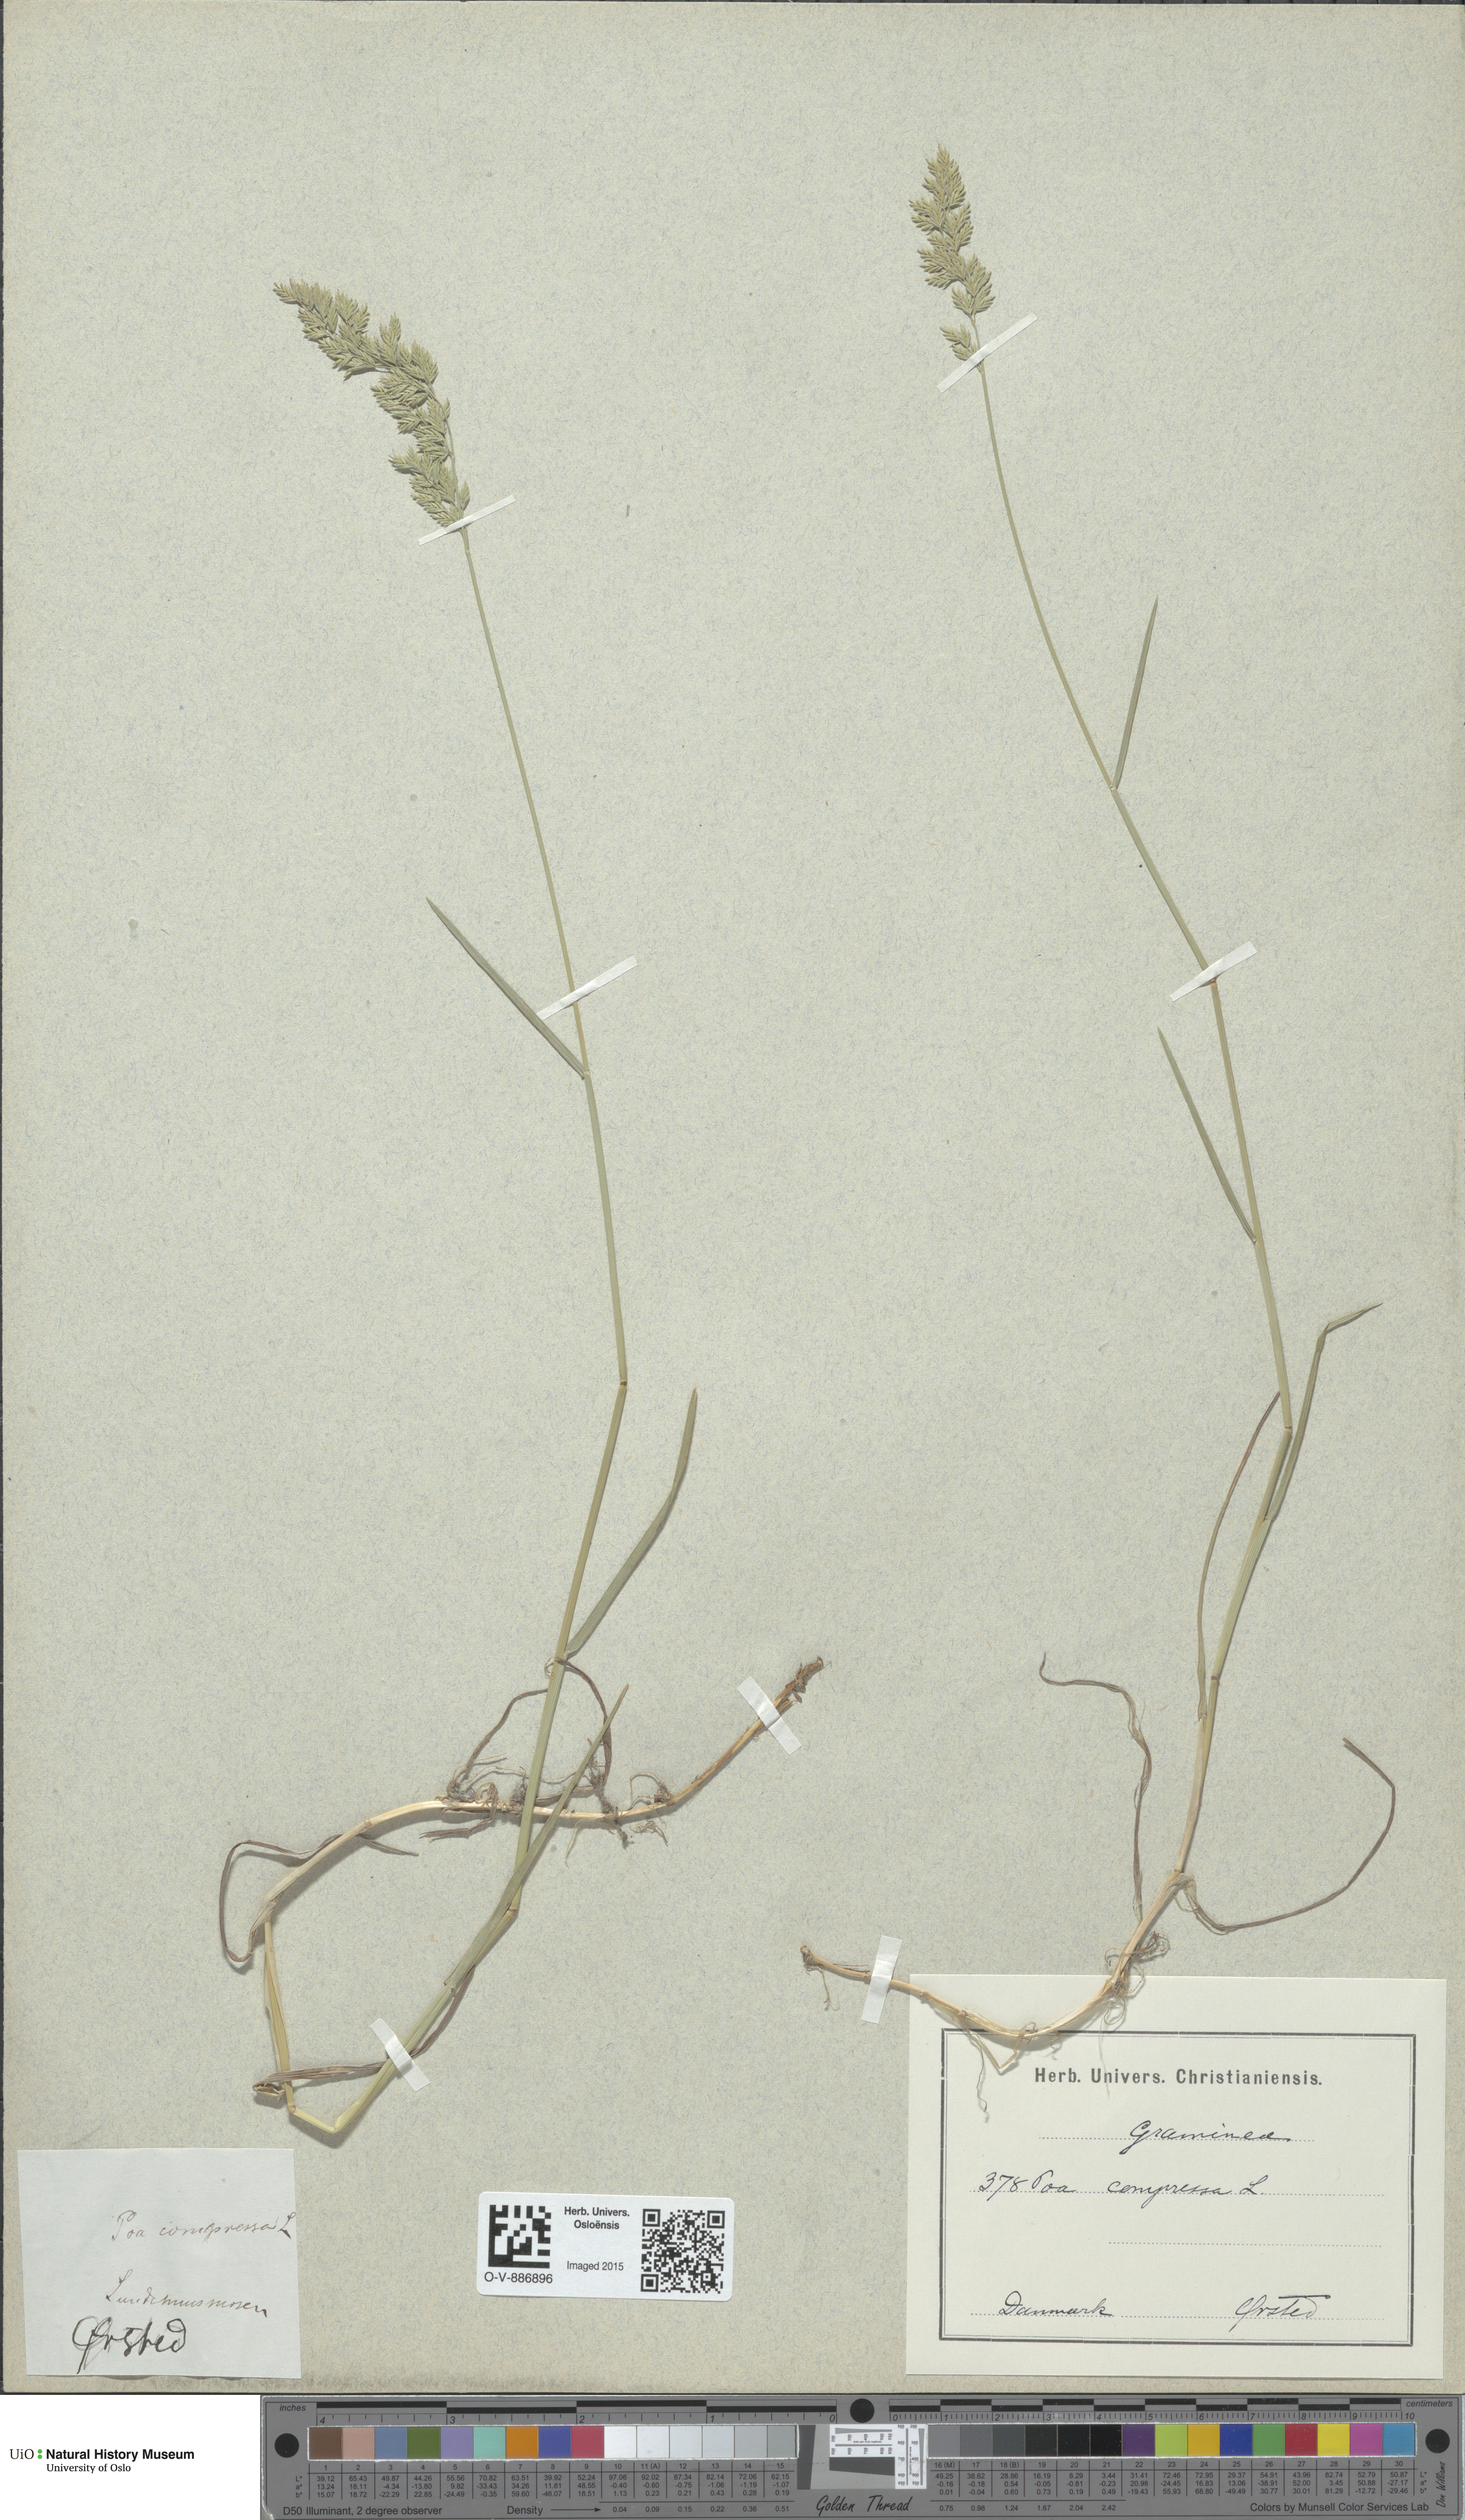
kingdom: Plantae
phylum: Tracheophyta
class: Liliopsida
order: Poales
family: Poaceae
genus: Poa
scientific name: Poa compressa
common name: Canada bluegrass
